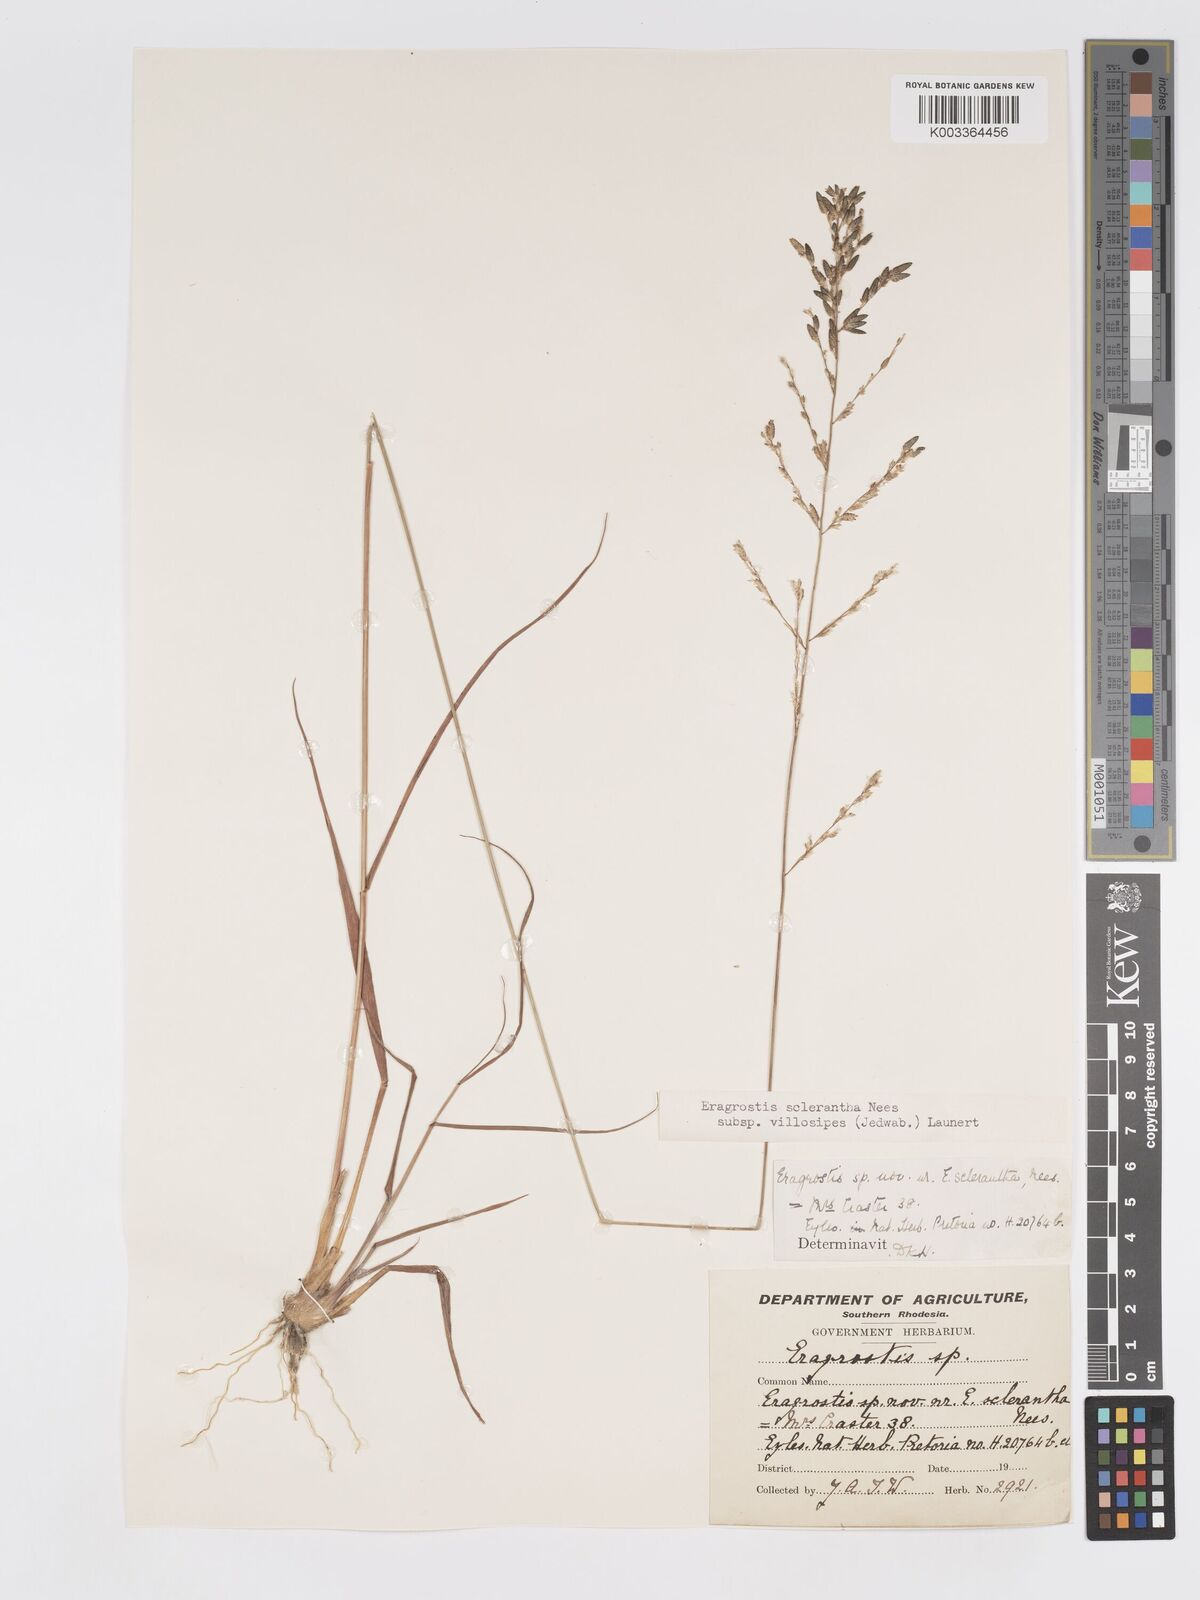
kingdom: Plantae
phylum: Tracheophyta
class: Liliopsida
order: Poales
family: Poaceae
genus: Eragrostis
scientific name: Eragrostis sclerantha
